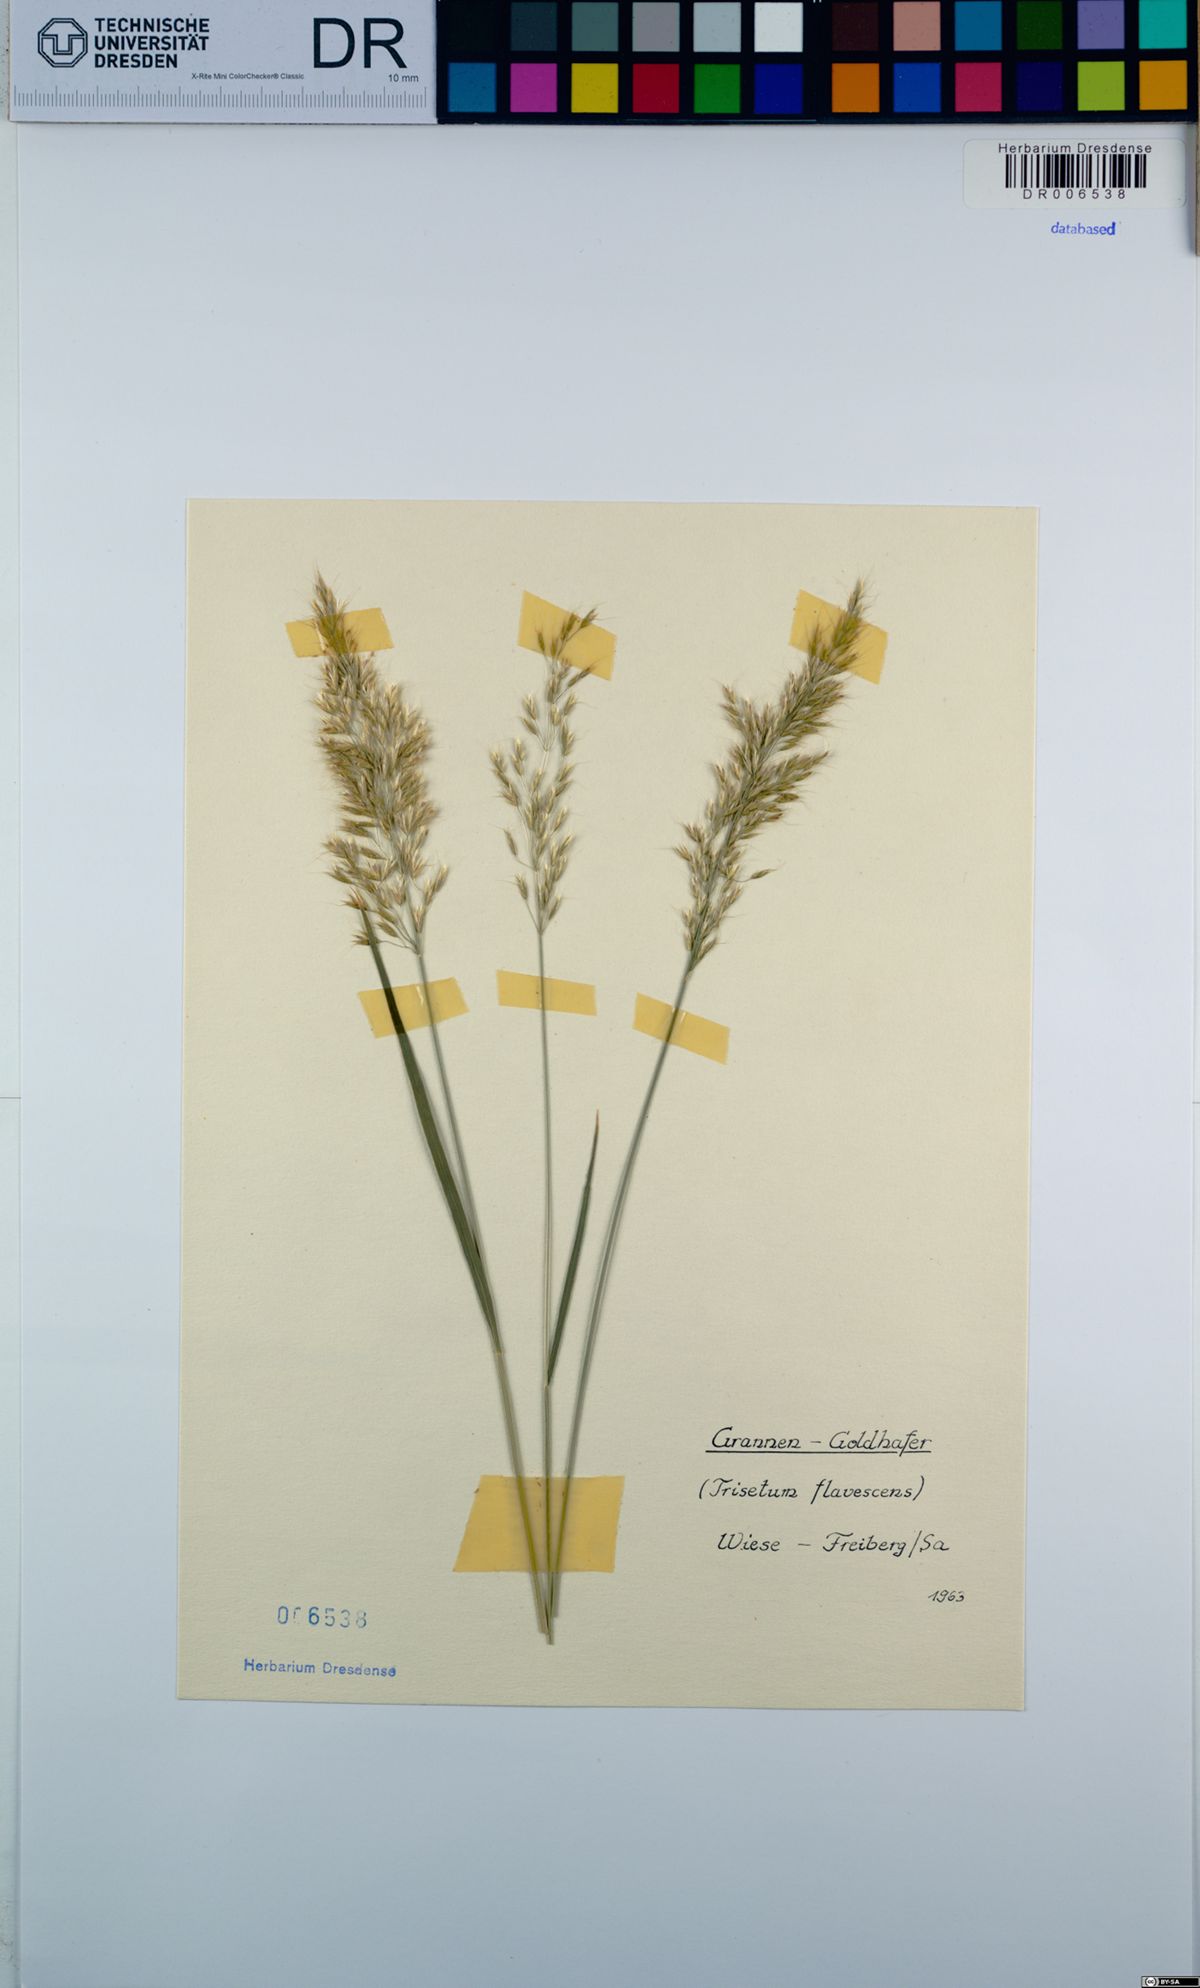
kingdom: Plantae
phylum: Tracheophyta
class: Liliopsida
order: Poales
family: Poaceae
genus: Trisetum
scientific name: Trisetum flavescens
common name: Yellow oat-grass
